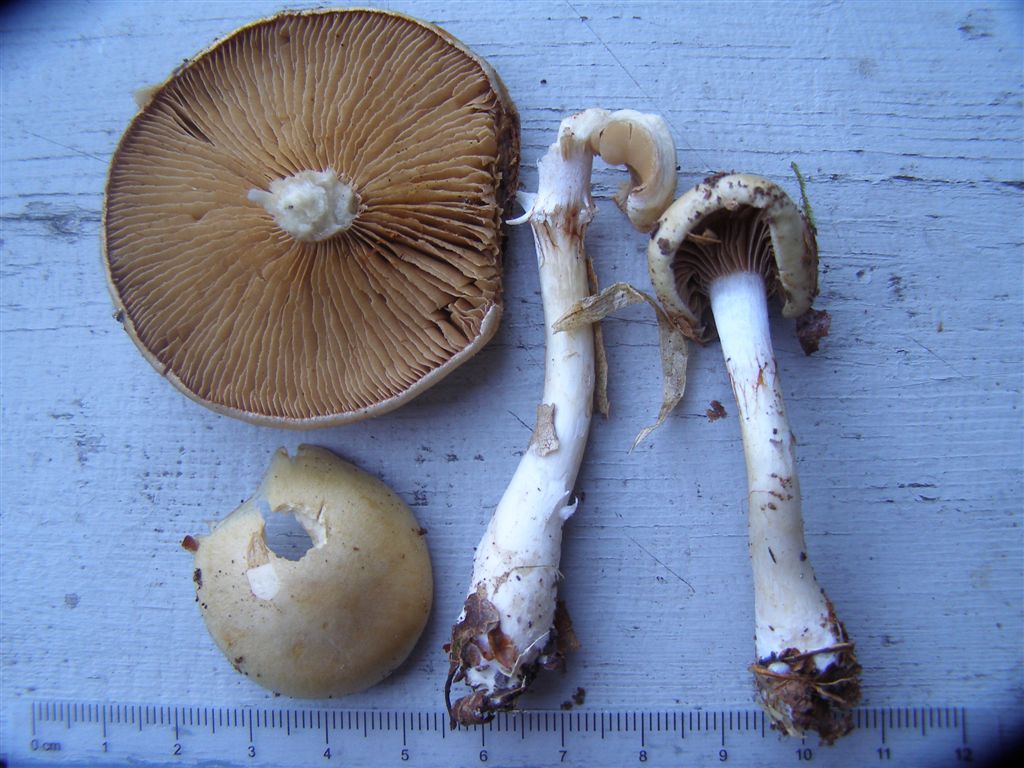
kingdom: Fungi
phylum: Basidiomycota
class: Agaricomycetes
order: Agaricales
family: Cortinariaceae
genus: Cortinarius
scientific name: Cortinarius tabularis
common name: lerbrun slørhat
